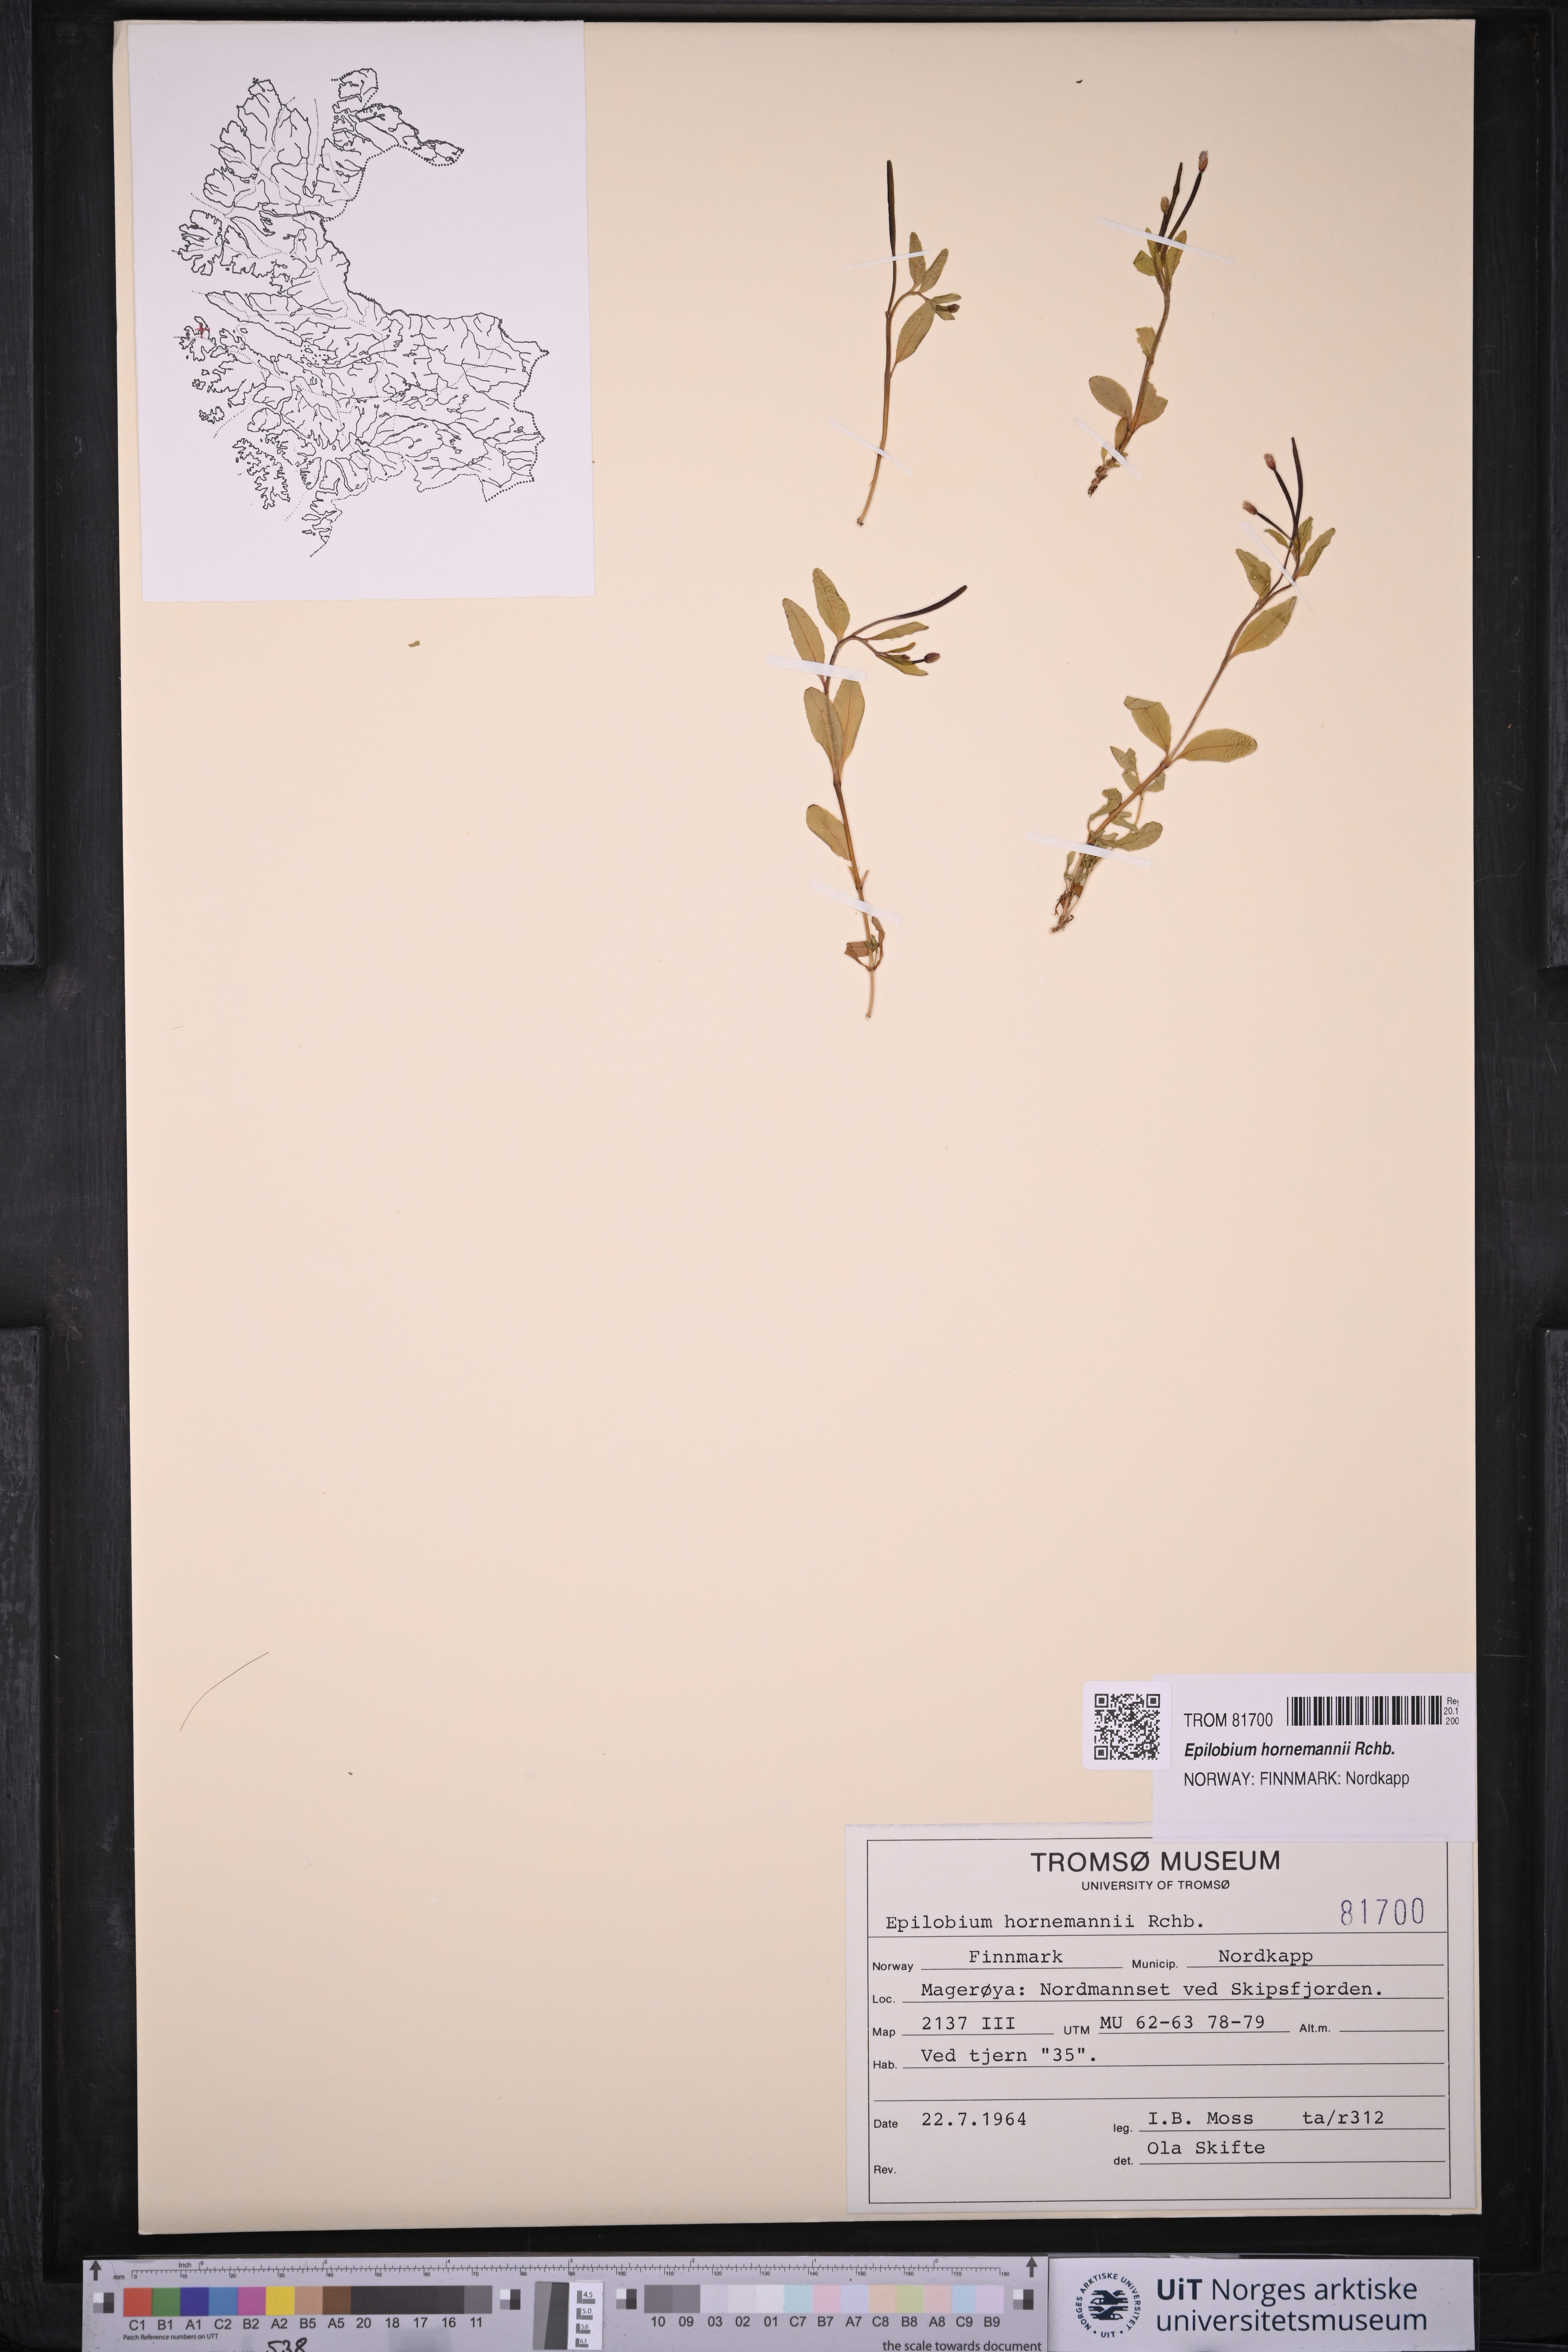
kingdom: Plantae
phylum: Tracheophyta
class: Magnoliopsida
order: Myrtales
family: Onagraceae
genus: Epilobium
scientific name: Epilobium hornemannii
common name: Hornemann's willowherb
